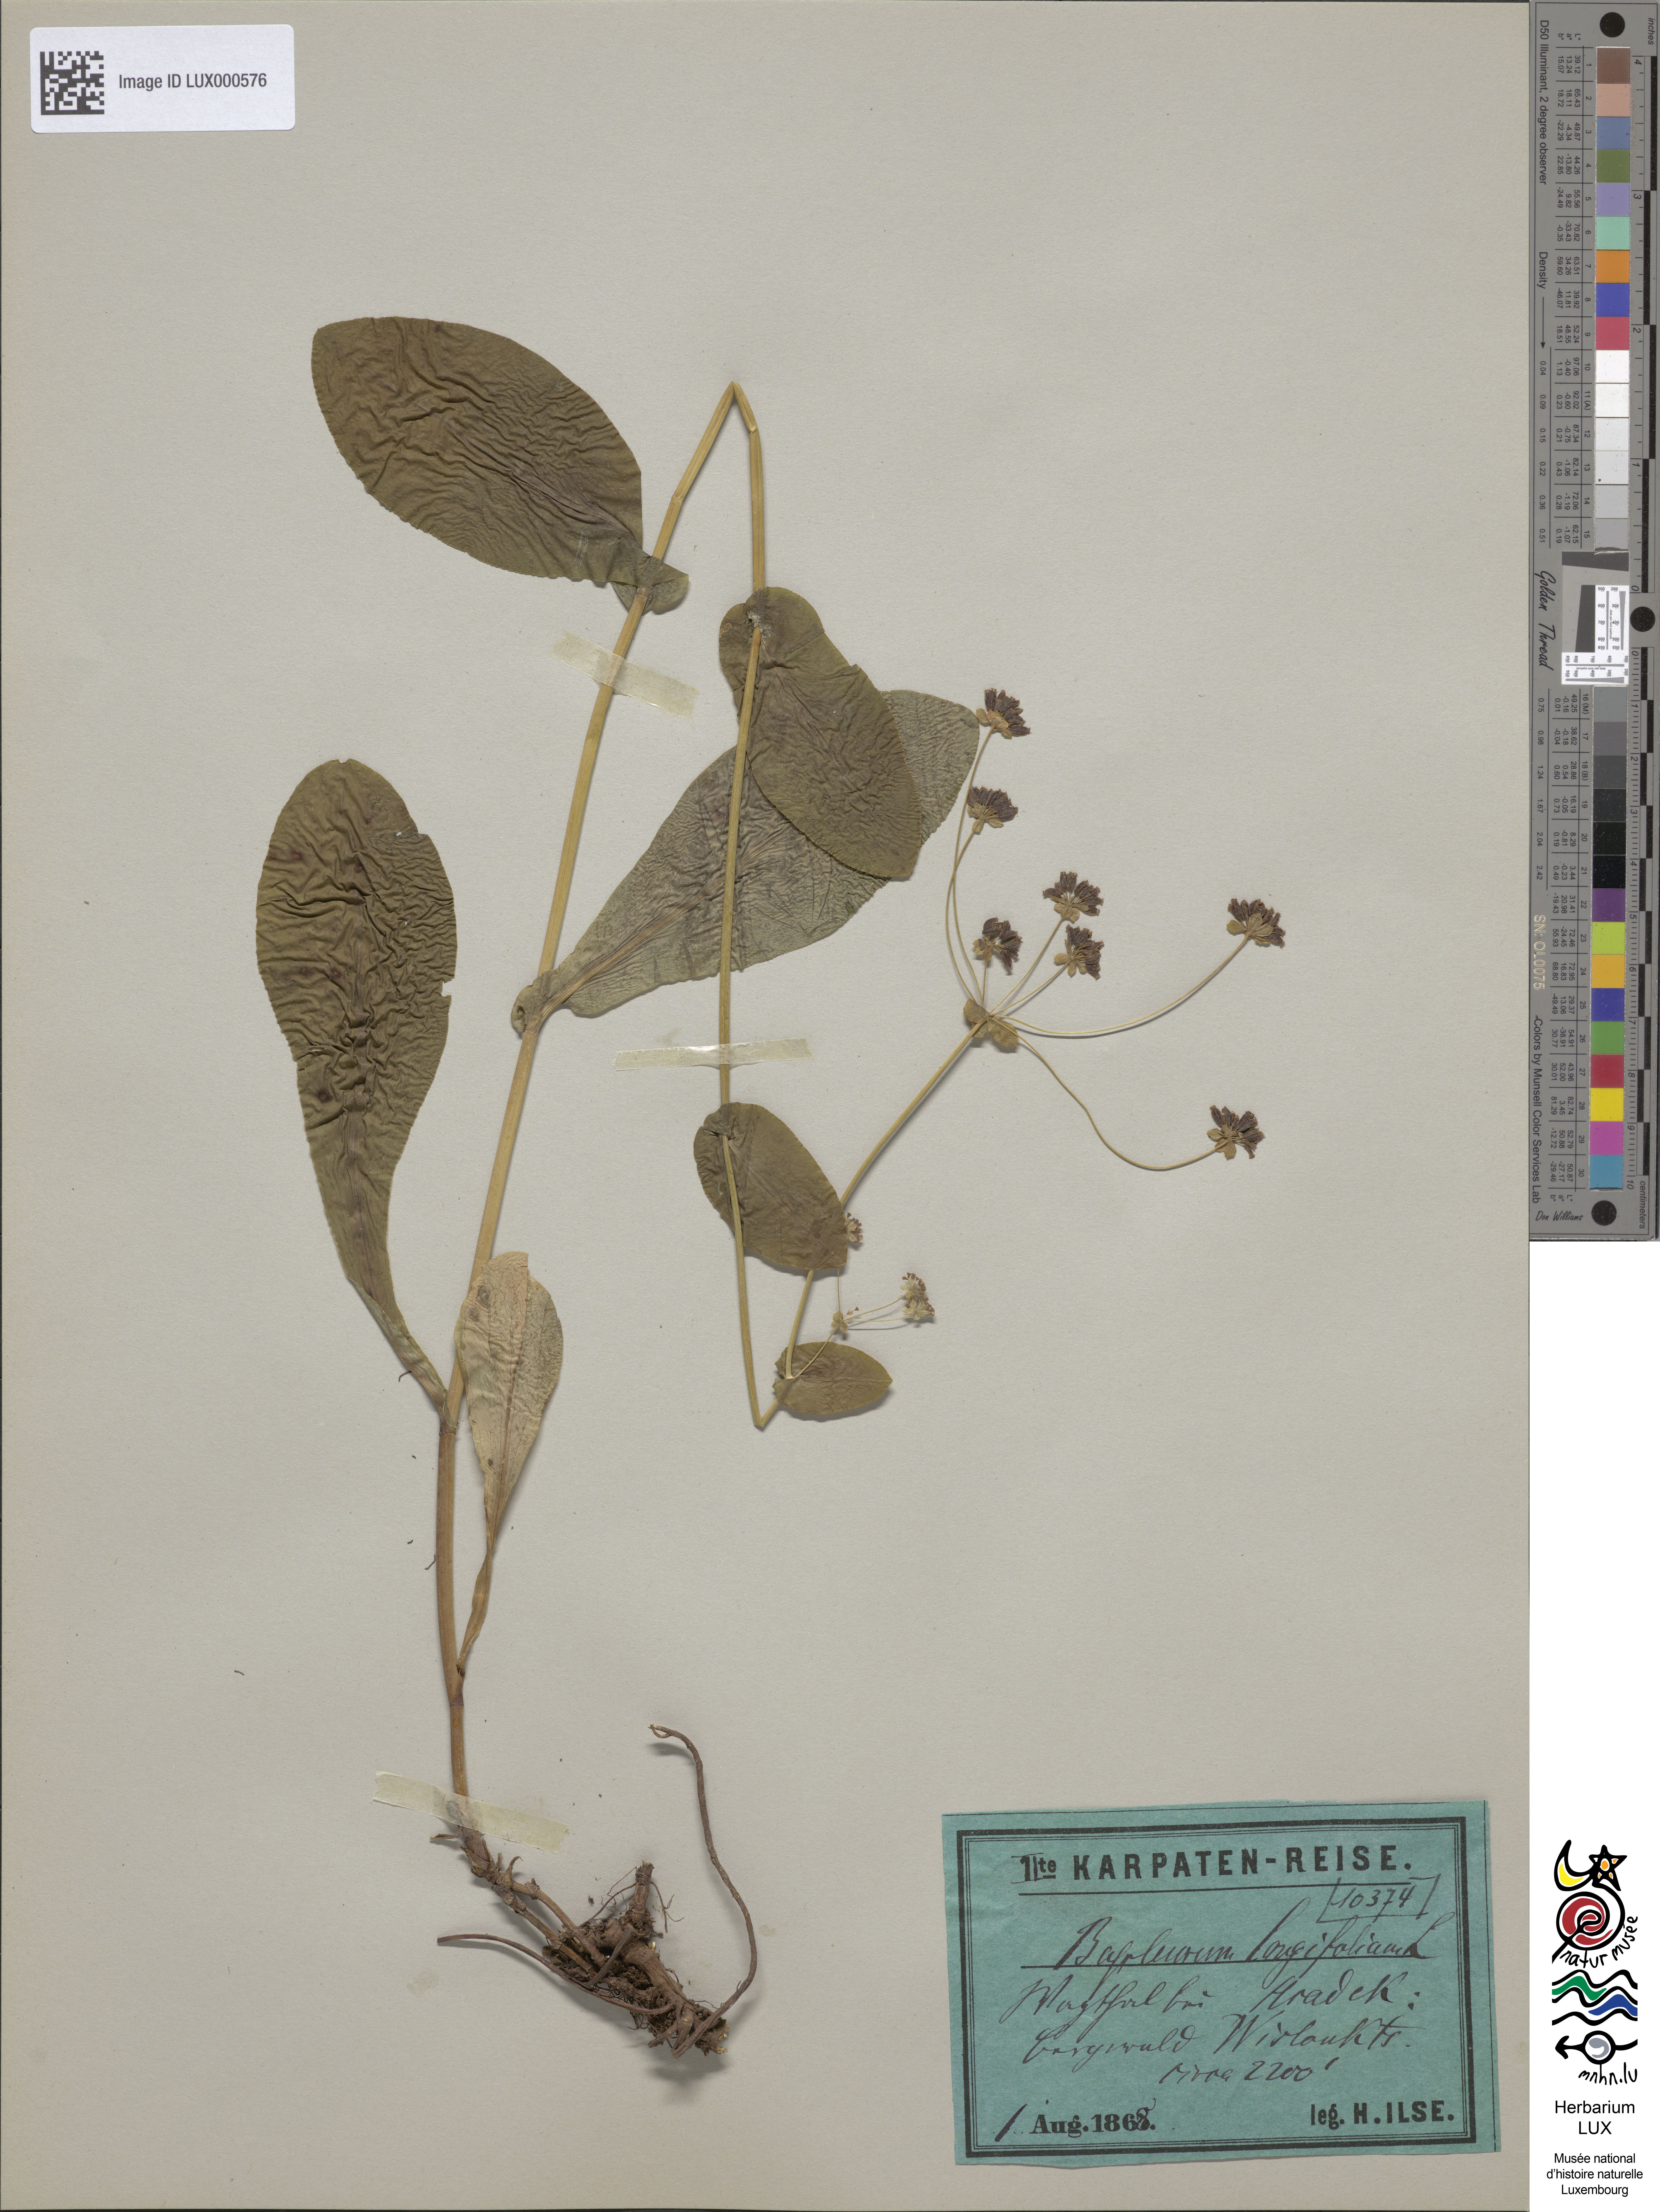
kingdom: Plantae
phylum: Tracheophyta
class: Magnoliopsida
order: Apiales
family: Apiaceae
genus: Bupleurum
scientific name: Bupleurum longifolium
